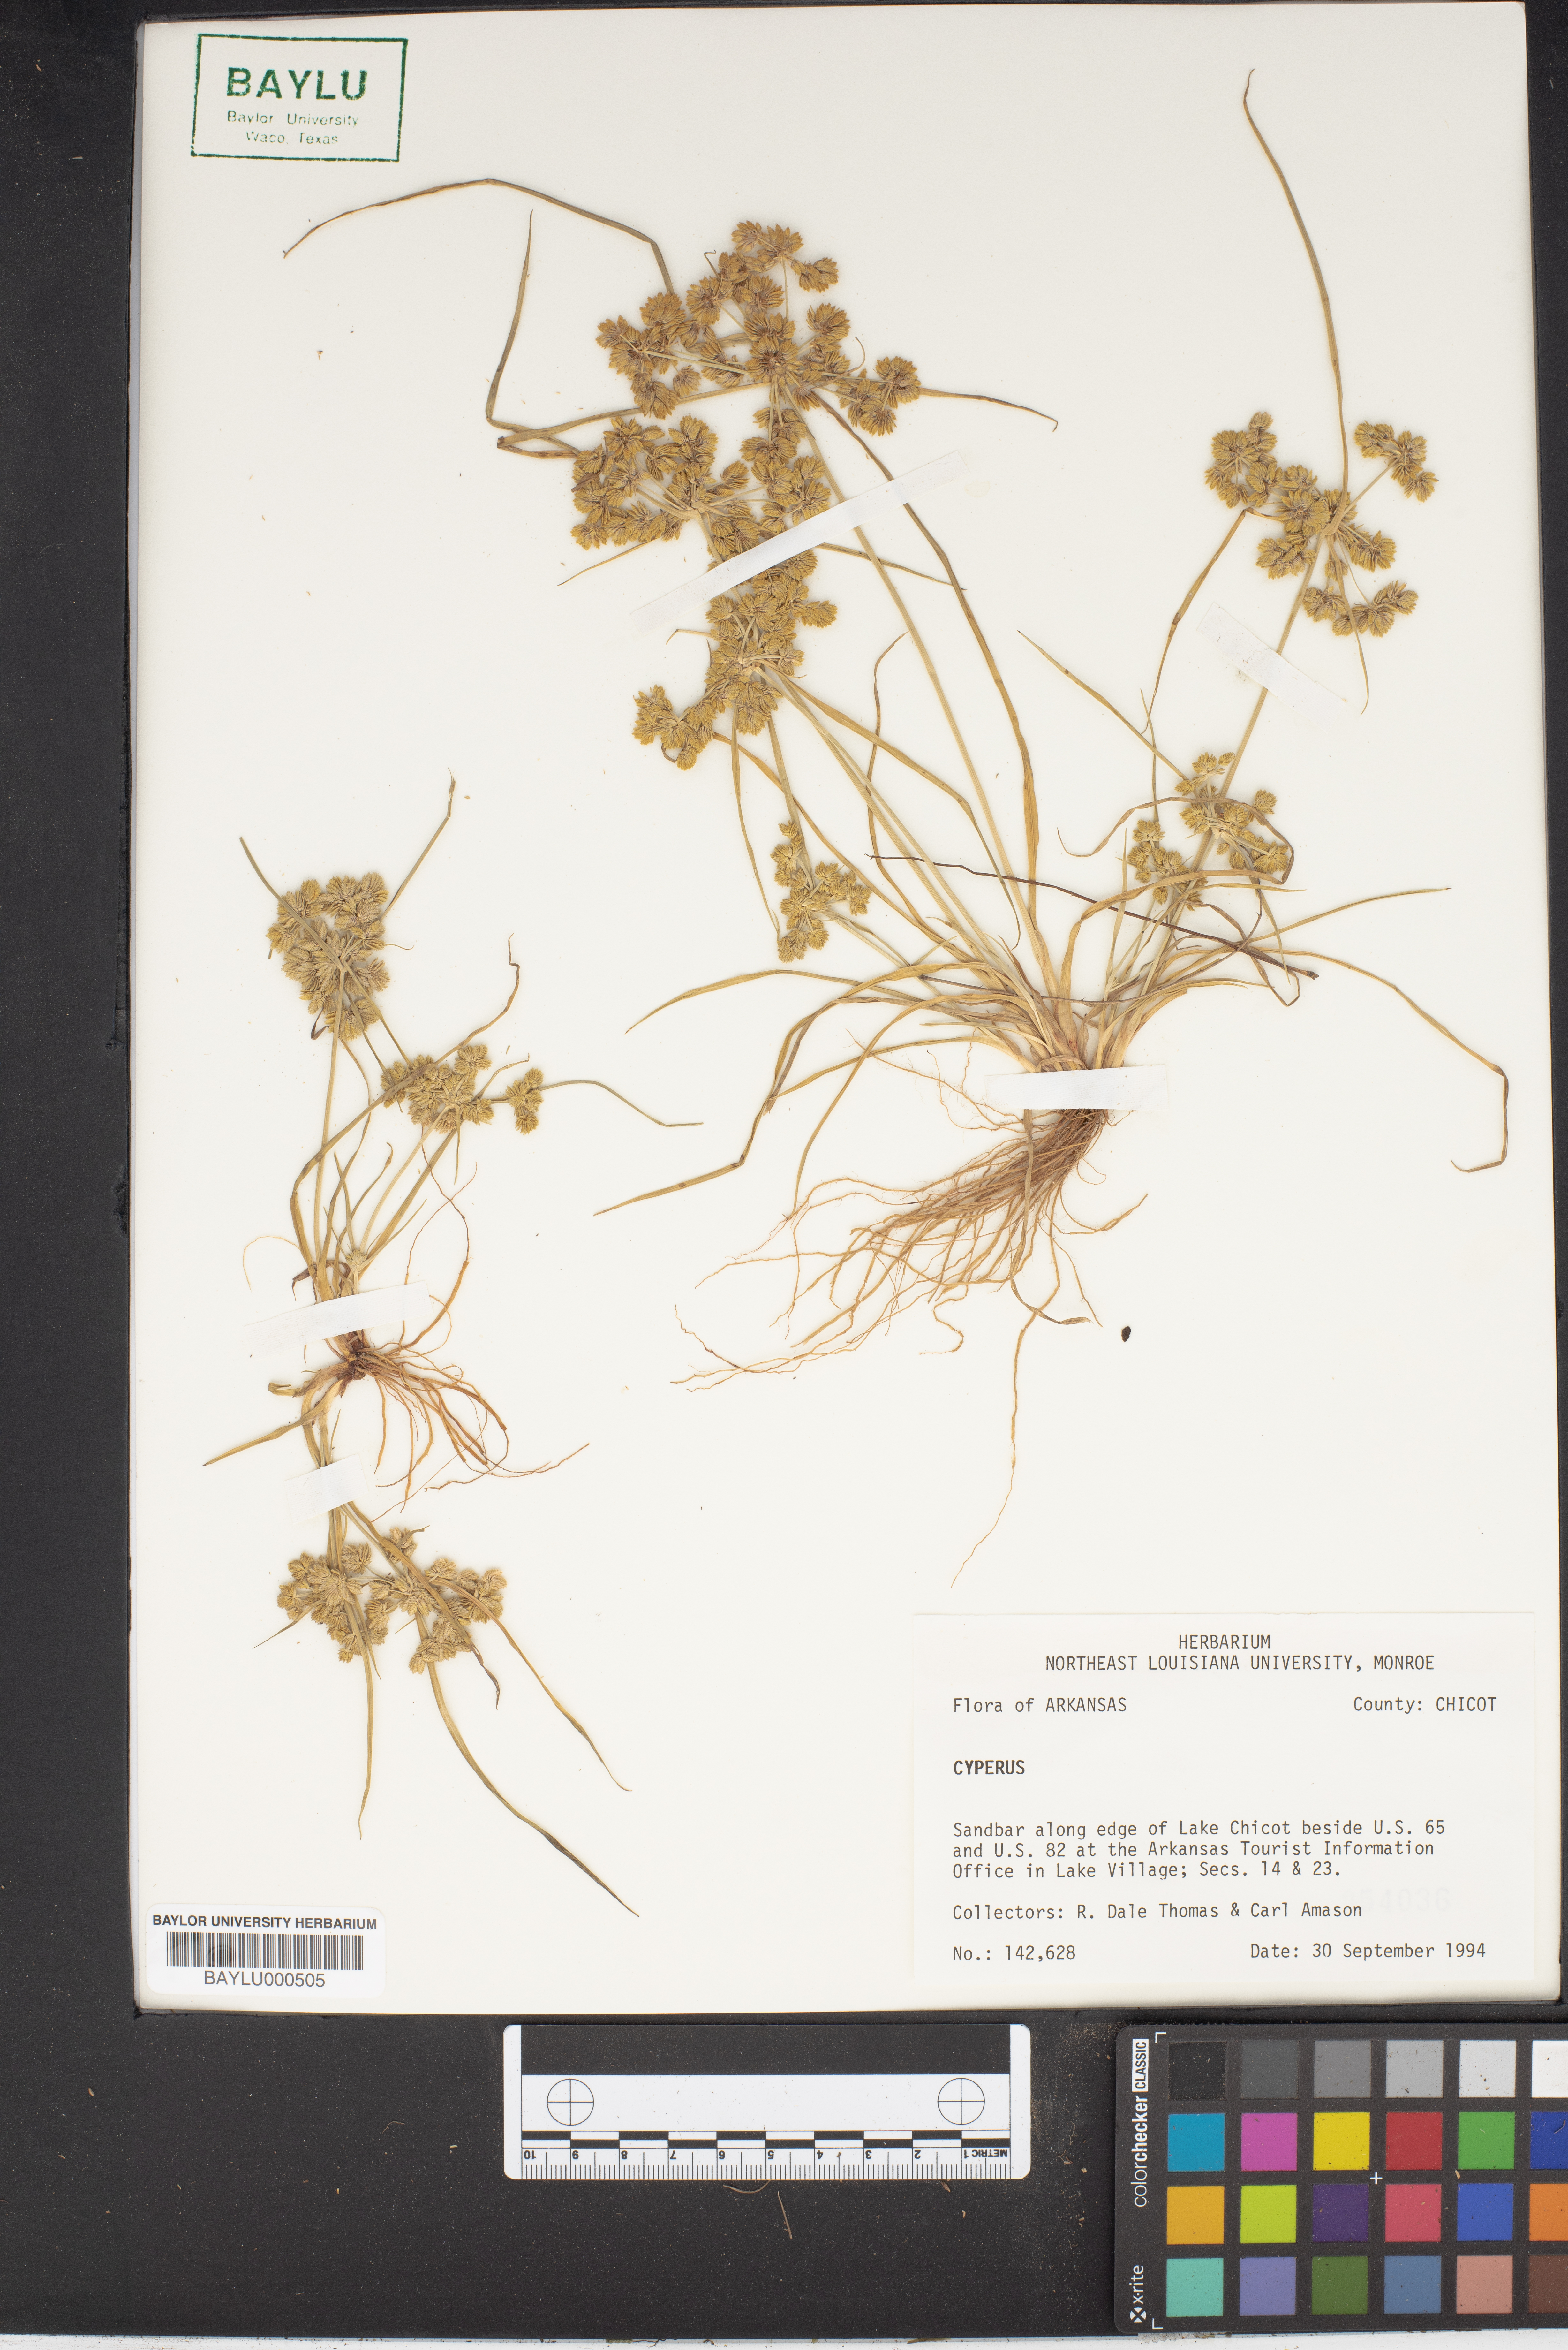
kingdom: Plantae
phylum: Tracheophyta
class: Liliopsida
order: Poales
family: Cyperaceae
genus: Cyperus
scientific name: Cyperus
